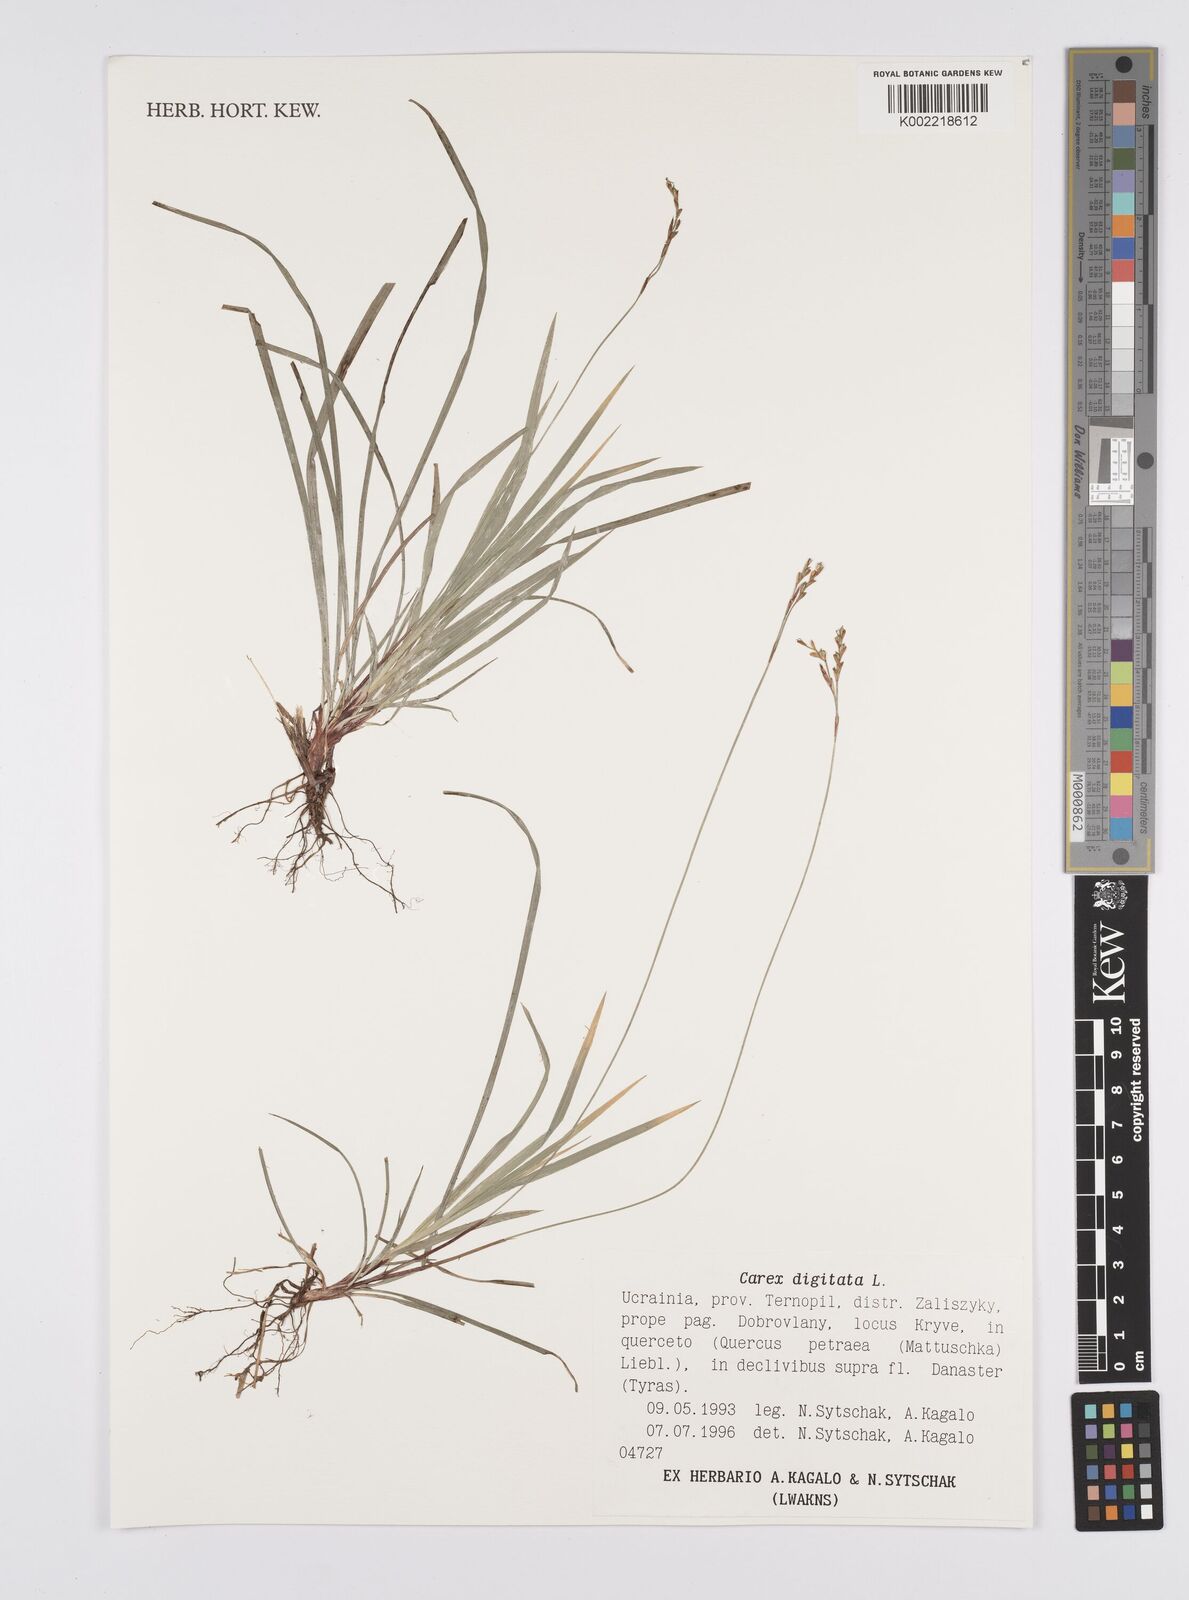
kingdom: Plantae
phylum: Tracheophyta
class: Liliopsida
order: Poales
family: Cyperaceae
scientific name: Cyperaceae
